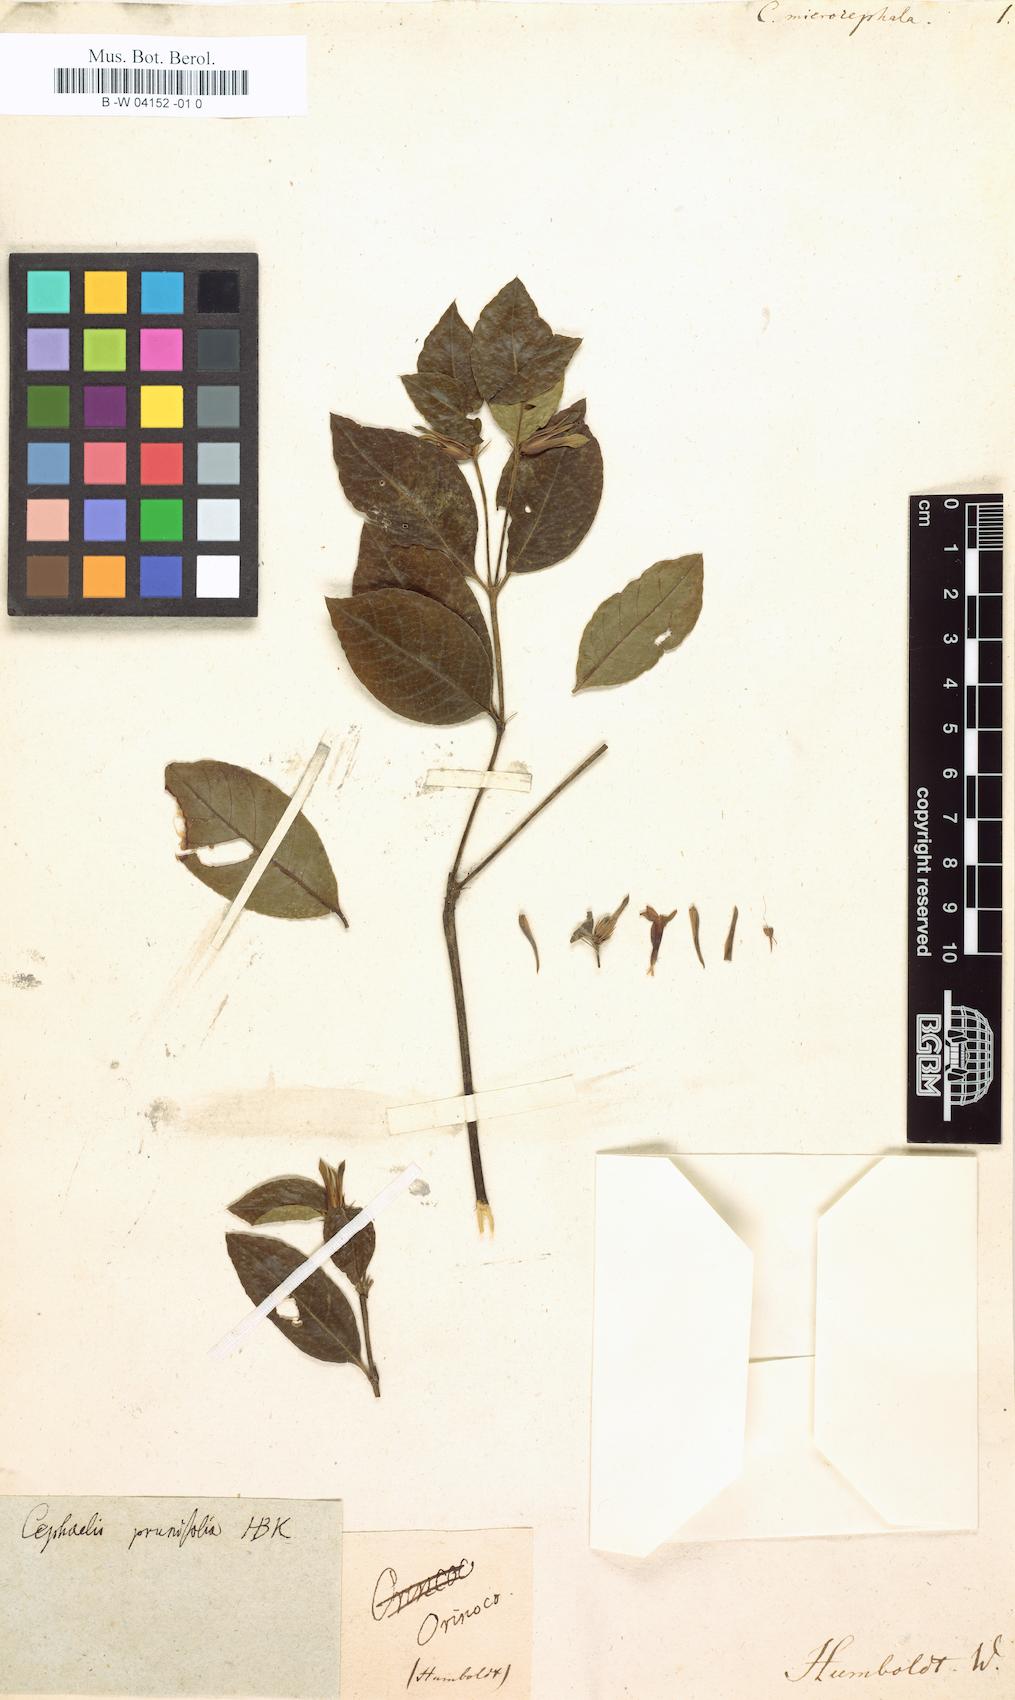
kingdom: Plantae
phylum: Tracheophyta
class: Magnoliopsida
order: Gentianales
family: Rubiaceae
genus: Palicourea
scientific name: Palicourea prunifolia
